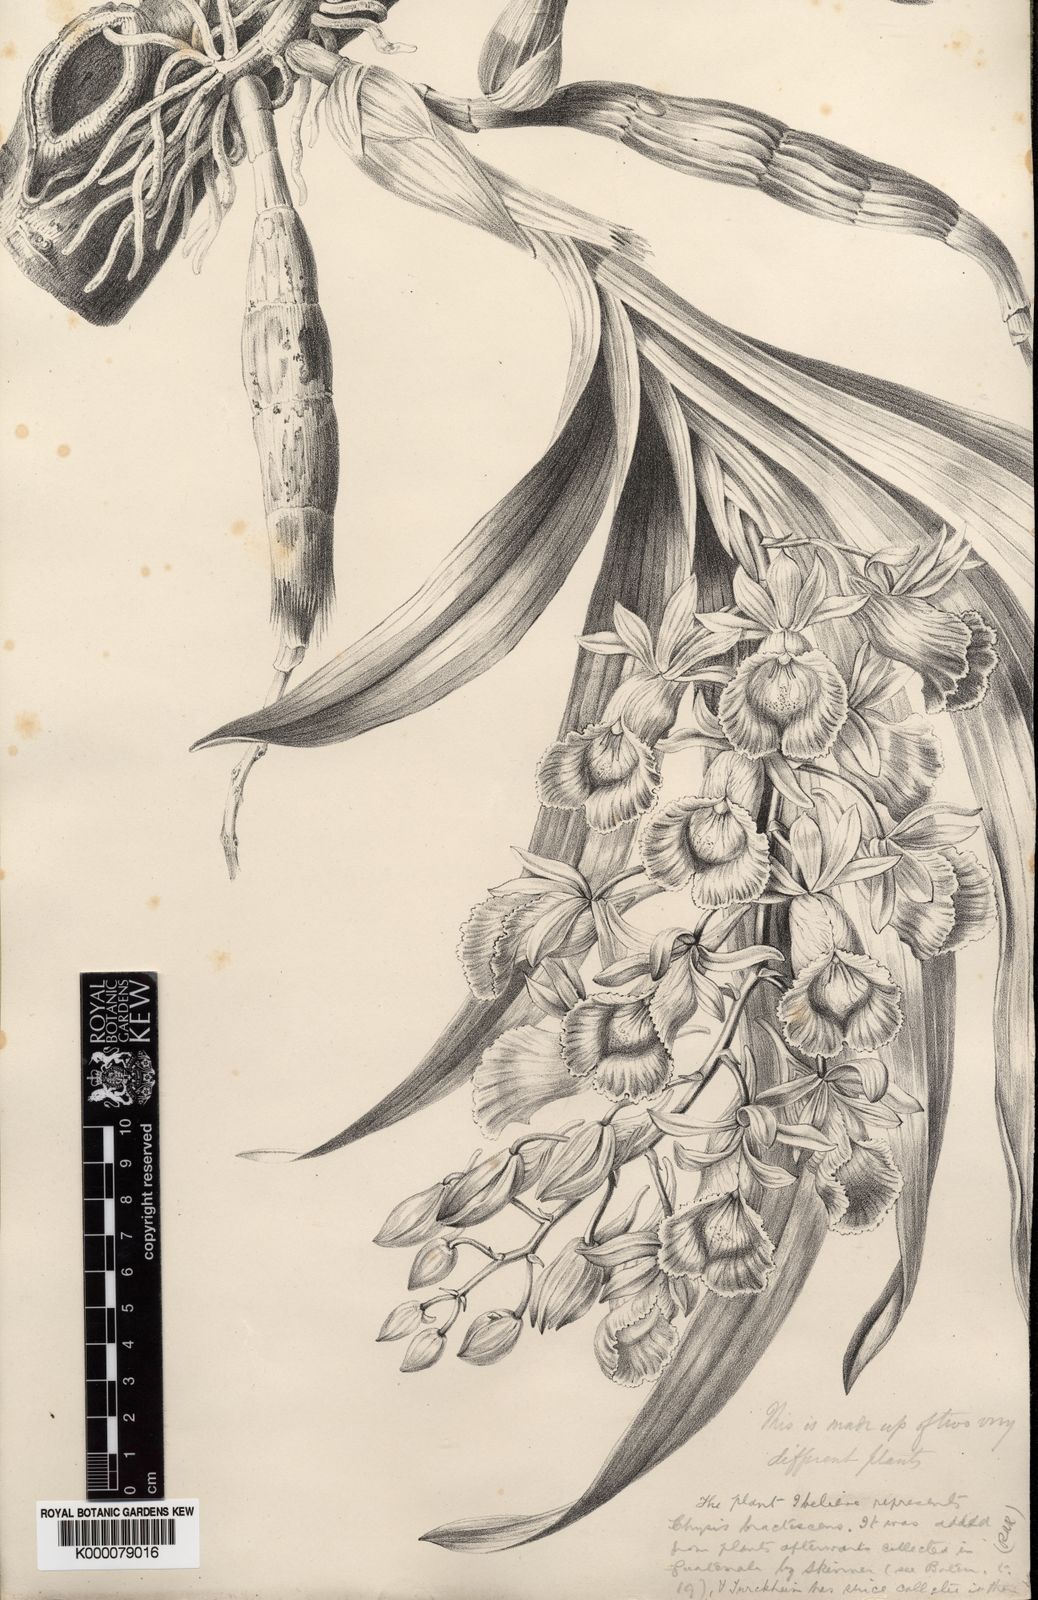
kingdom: Plantae
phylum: Tracheophyta
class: Liliopsida
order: Asparagales
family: Orchidaceae
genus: Galeandra
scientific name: Galeandra
